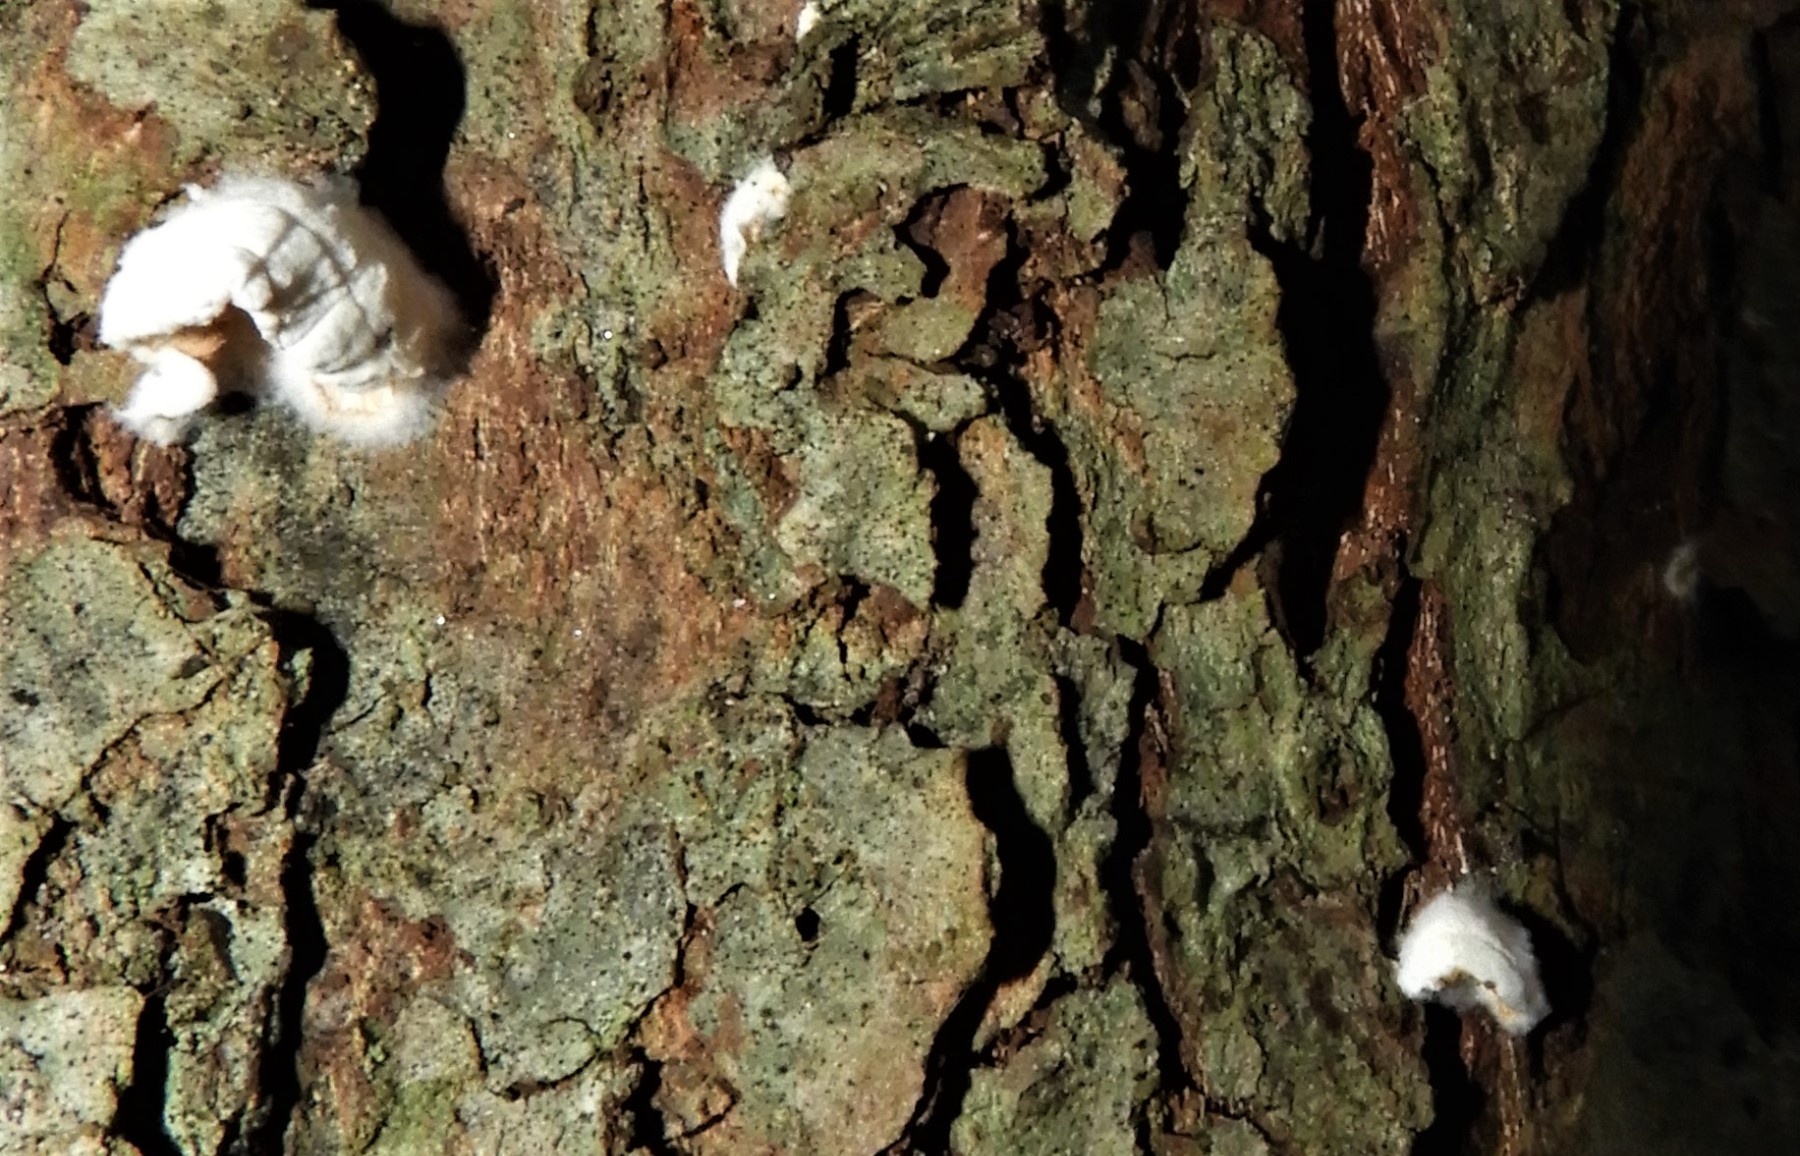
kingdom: Fungi
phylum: Basidiomycota
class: Agaricomycetes
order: Agaricales
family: Crepidotaceae
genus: Crepidotus
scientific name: Crepidotus
